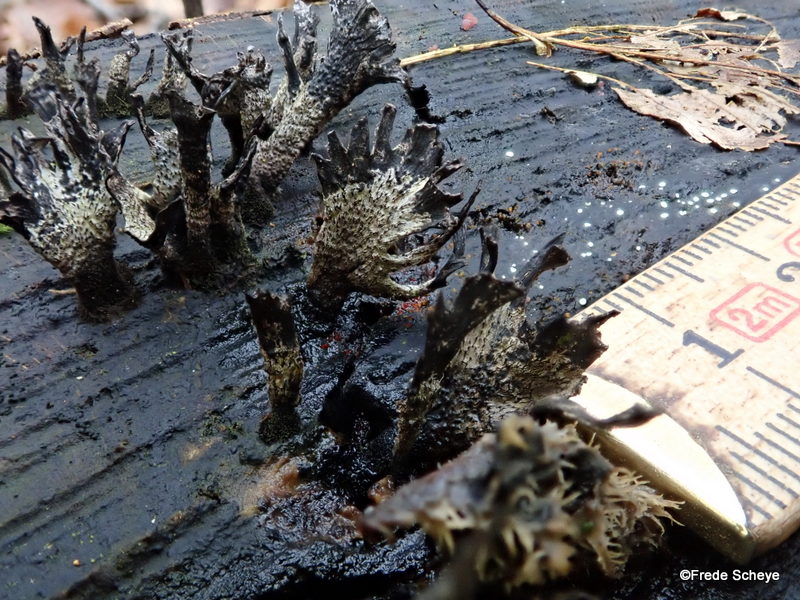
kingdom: Fungi
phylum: Ascomycota
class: Sordariomycetes
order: Xylariales
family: Xylariaceae
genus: Xylaria
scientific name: Xylaria hypoxylon
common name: grenet stødsvamp
